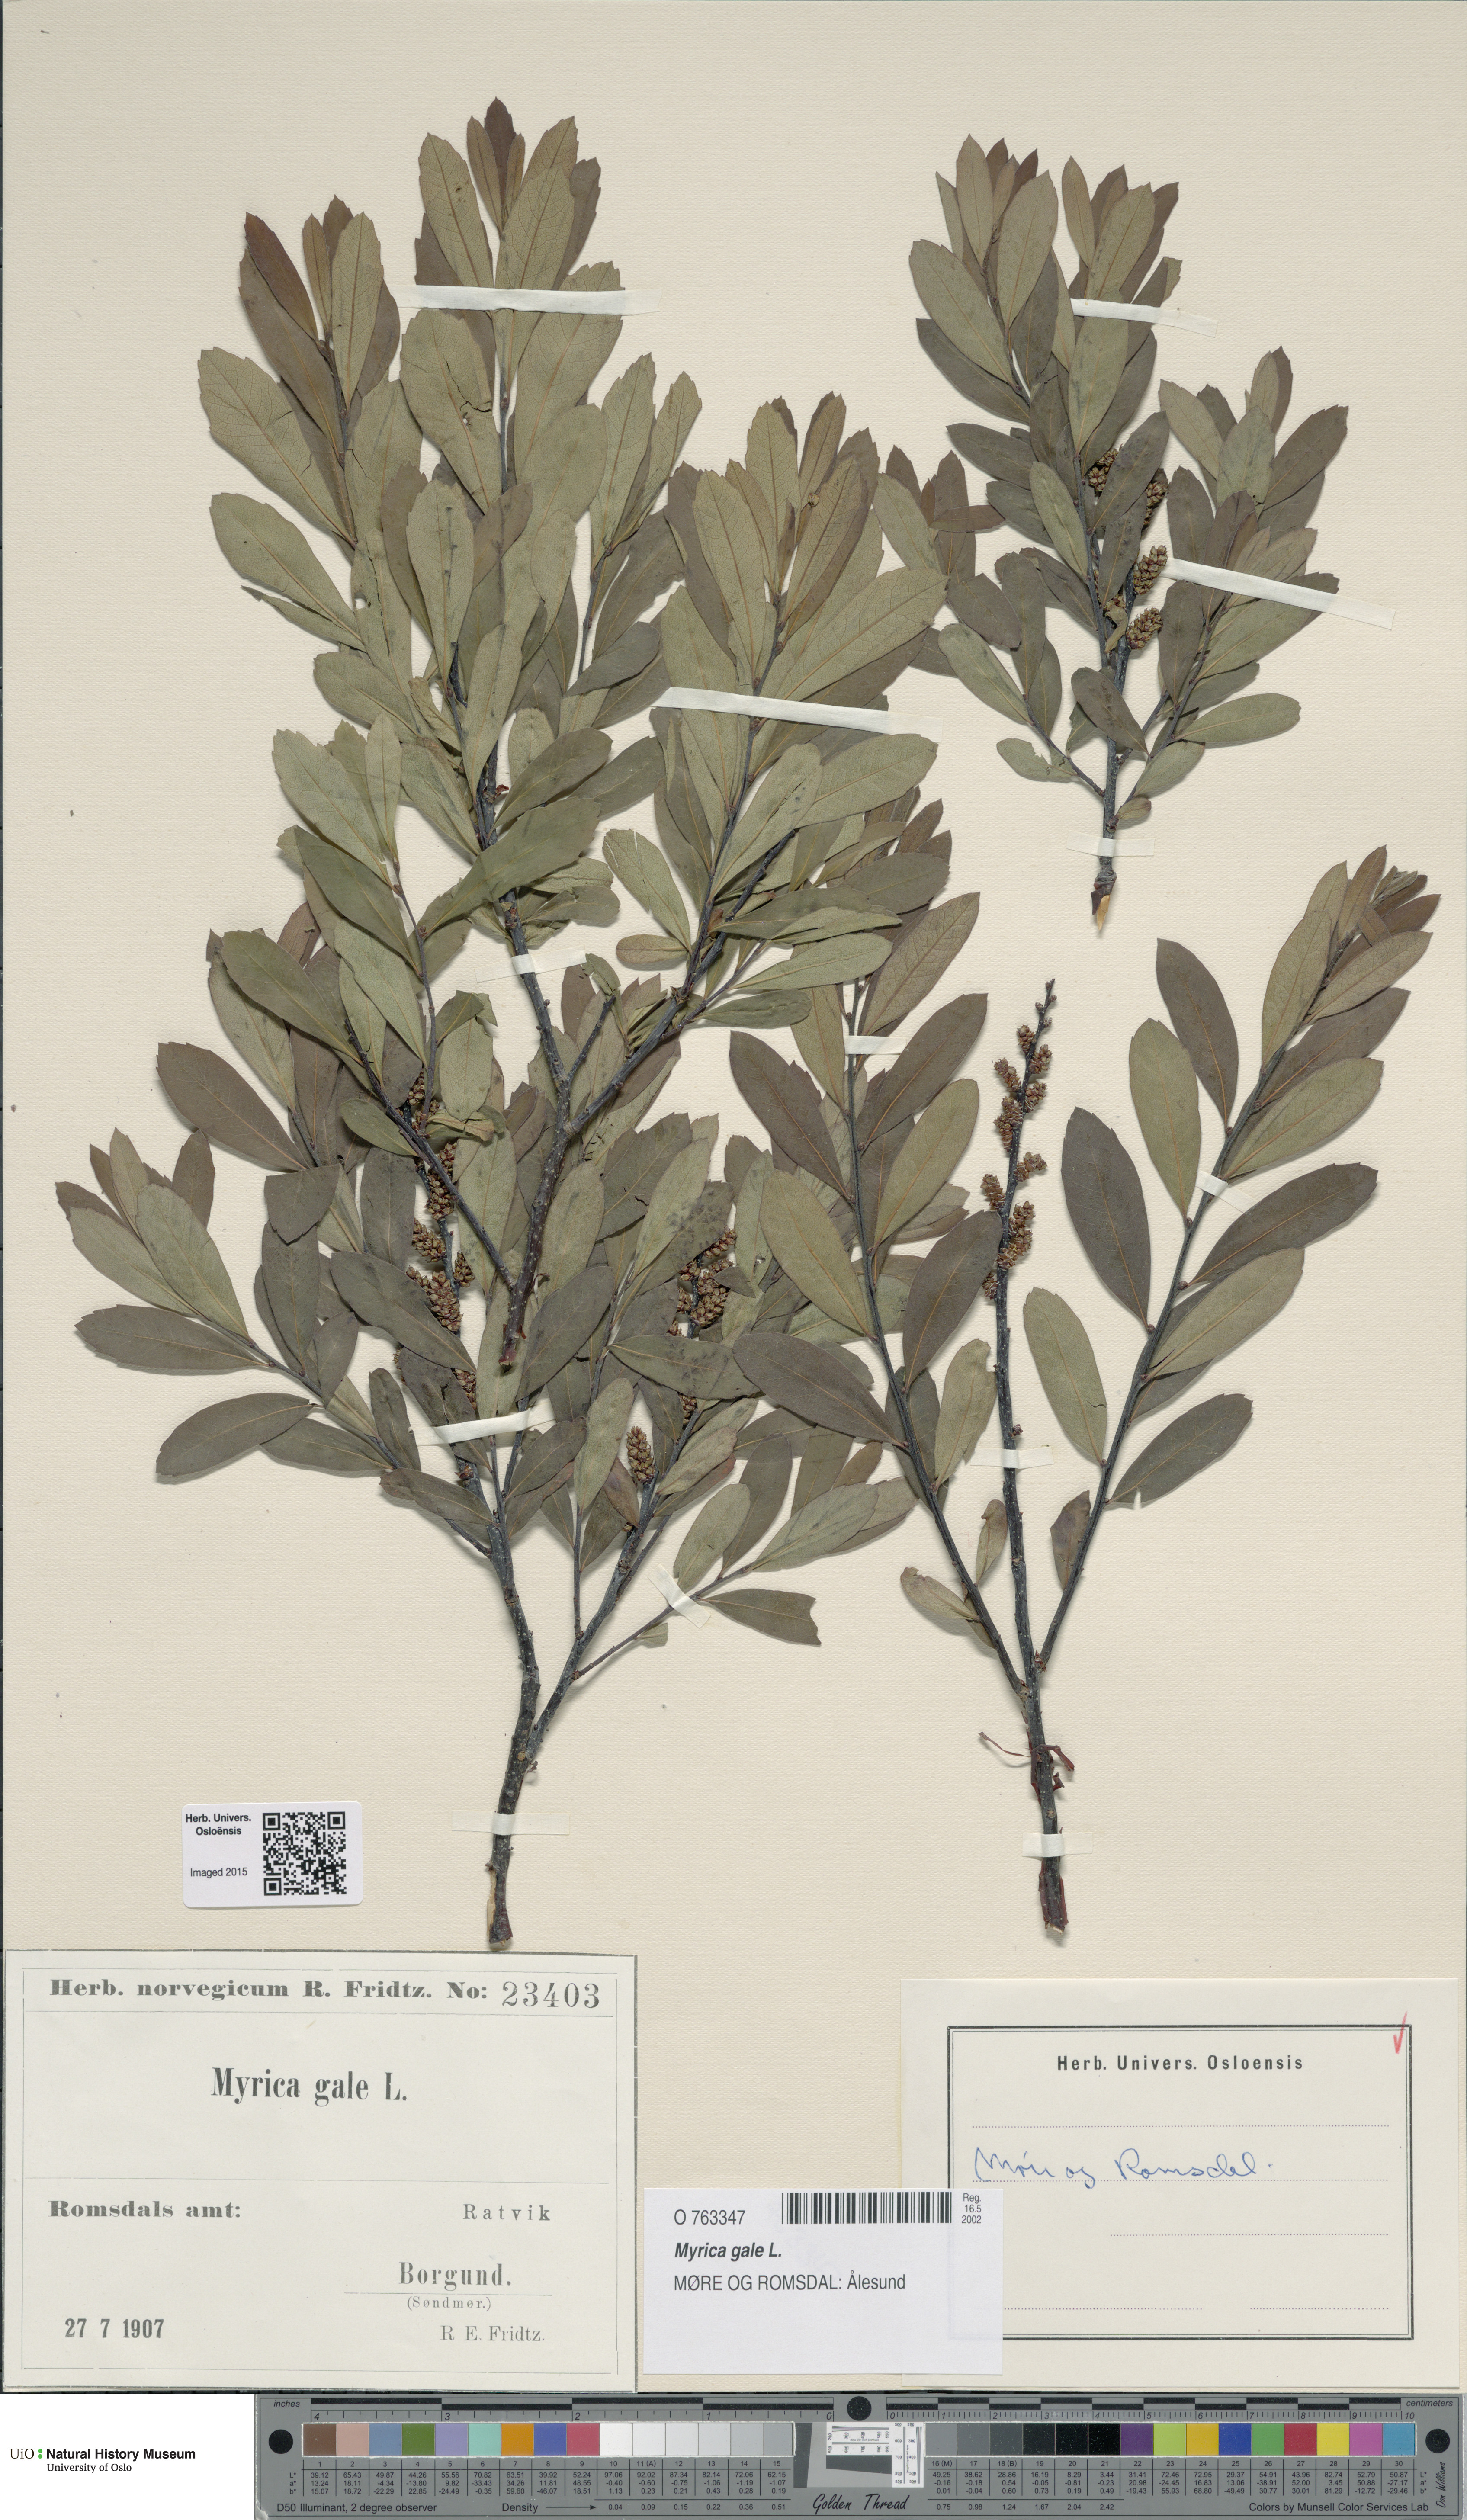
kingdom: Plantae
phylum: Tracheophyta
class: Magnoliopsida
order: Fagales
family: Myricaceae
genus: Myrica
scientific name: Myrica gale
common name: Sweet gale
